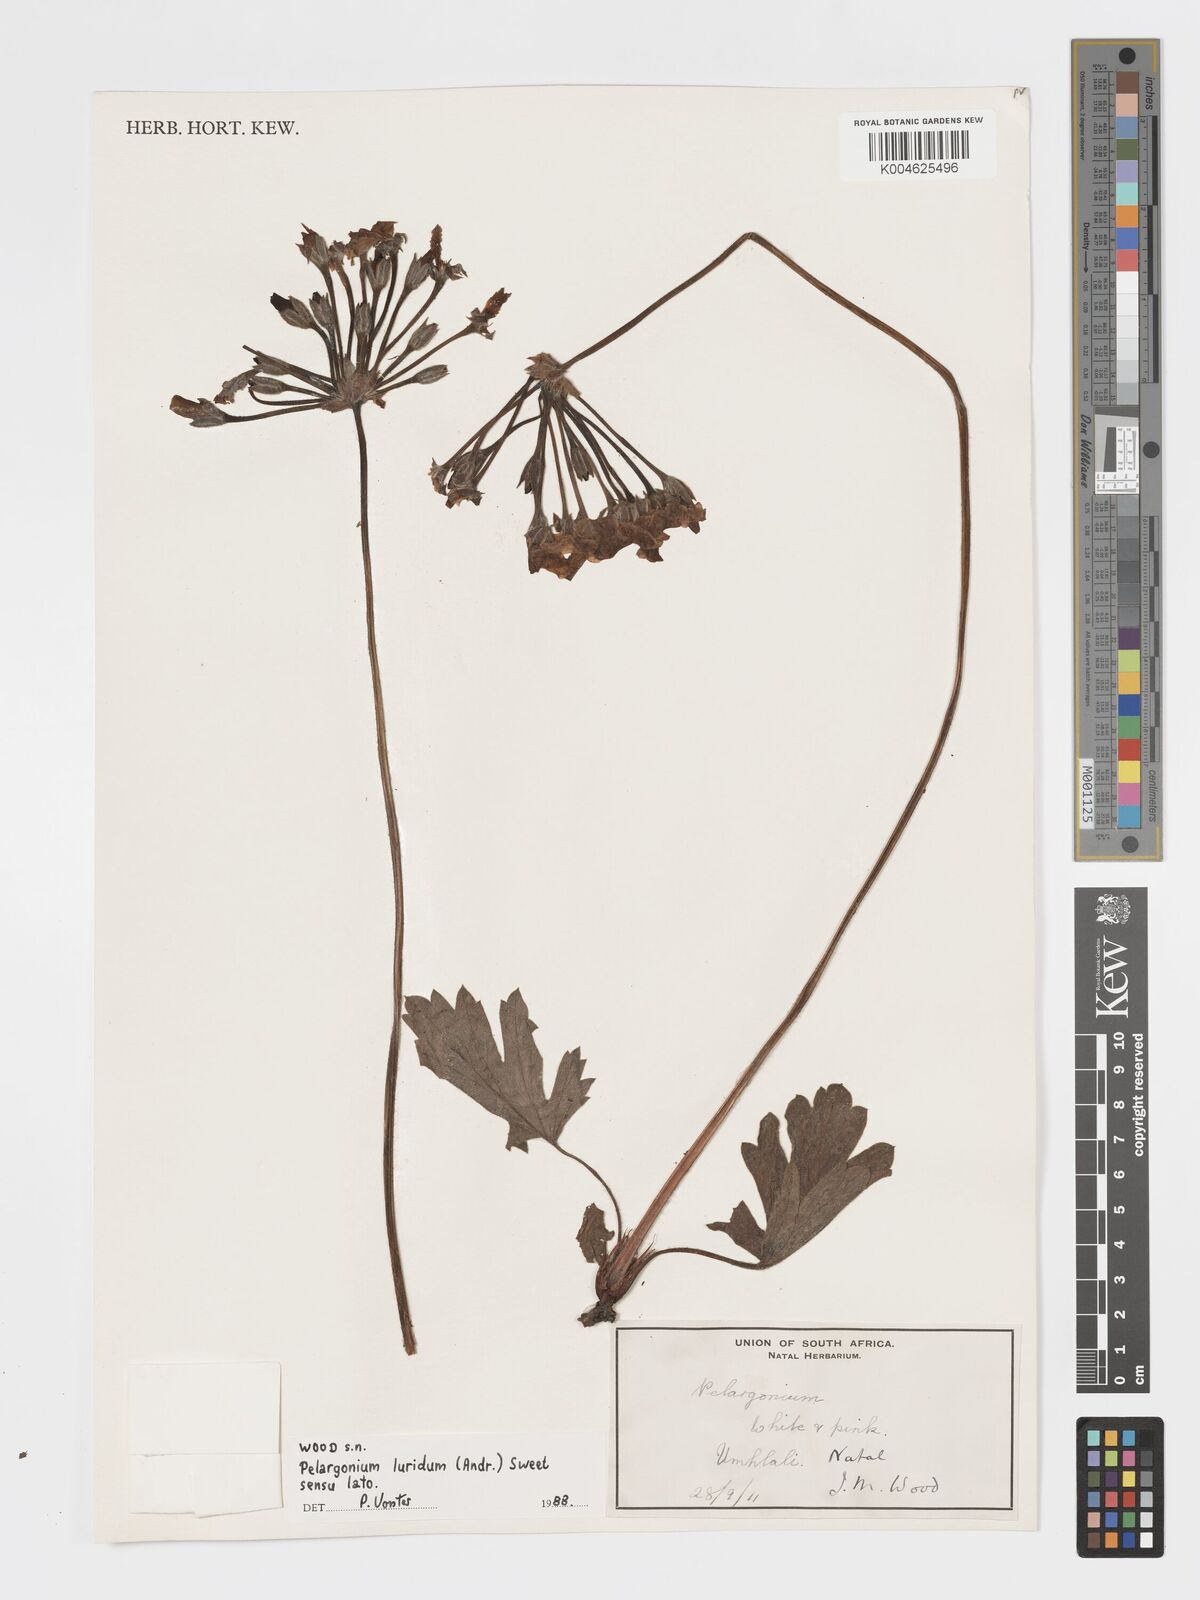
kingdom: Plantae
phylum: Tracheophyta
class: Magnoliopsida
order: Geraniales
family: Geraniaceae
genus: Pelargonium
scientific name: Pelargonium luridum
